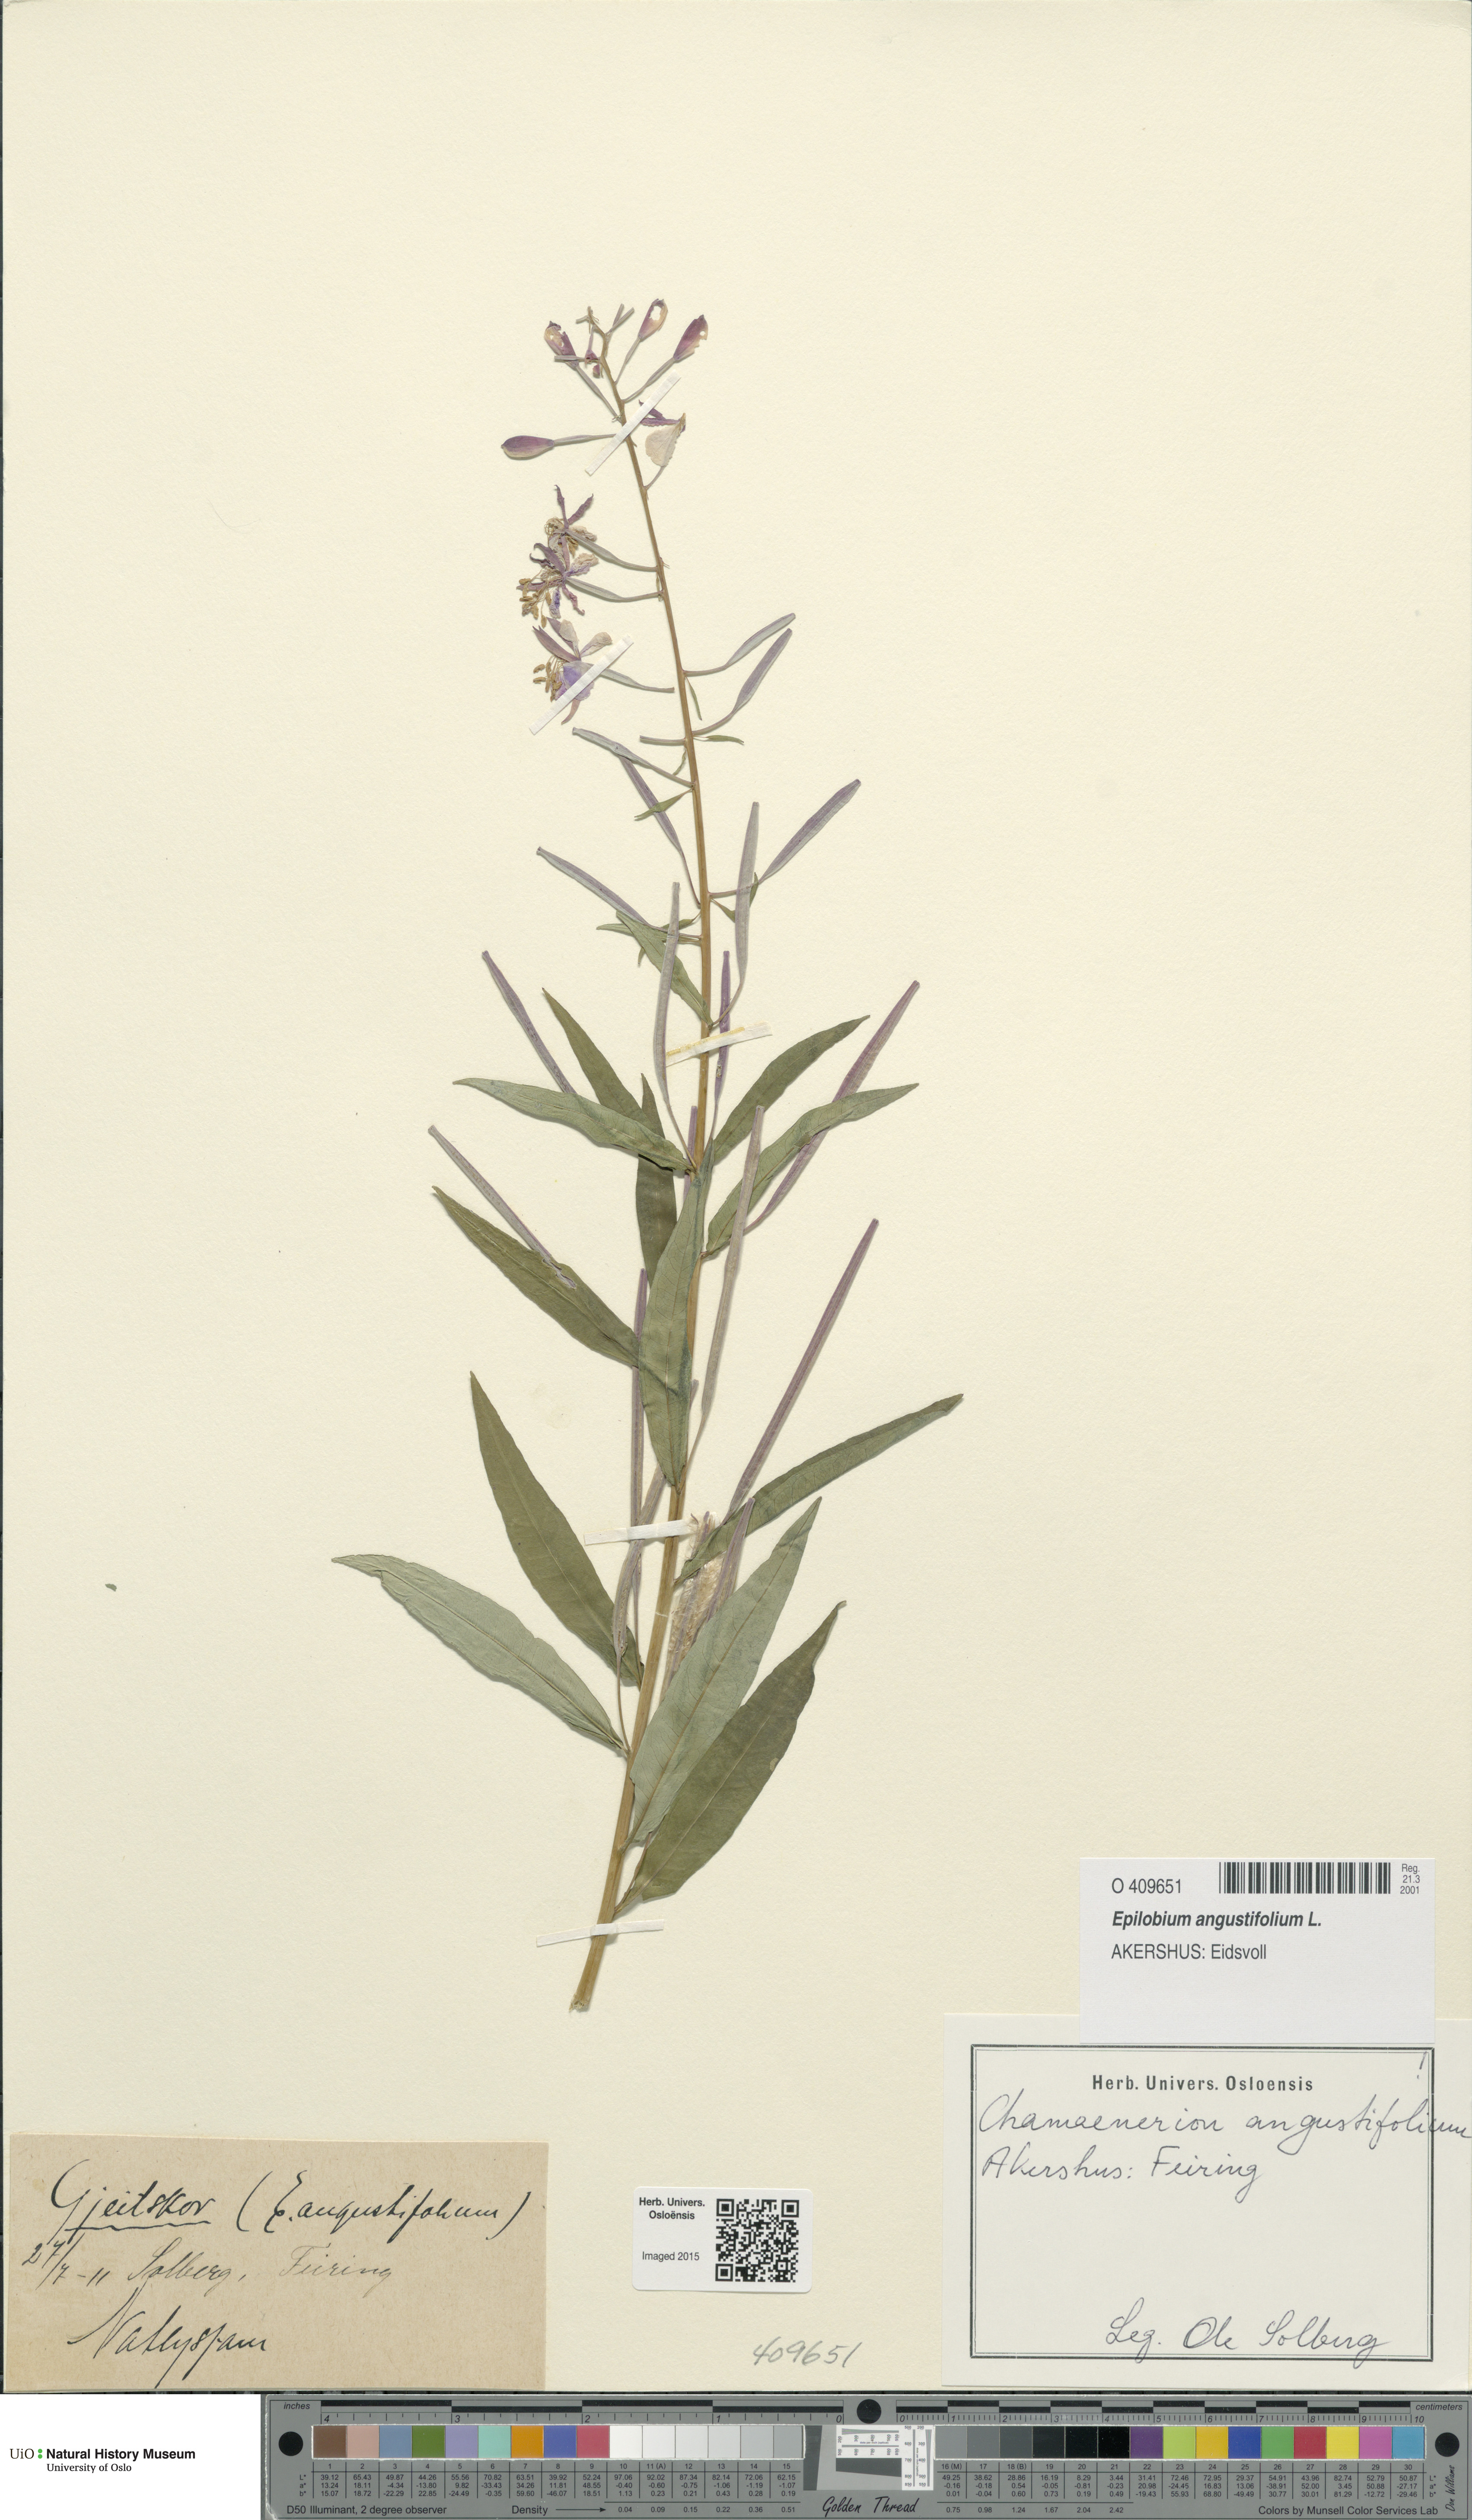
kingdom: Plantae
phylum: Tracheophyta
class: Magnoliopsida
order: Myrtales
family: Onagraceae
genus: Chamaenerion
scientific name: Chamaenerion angustifolium
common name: Fireweed
